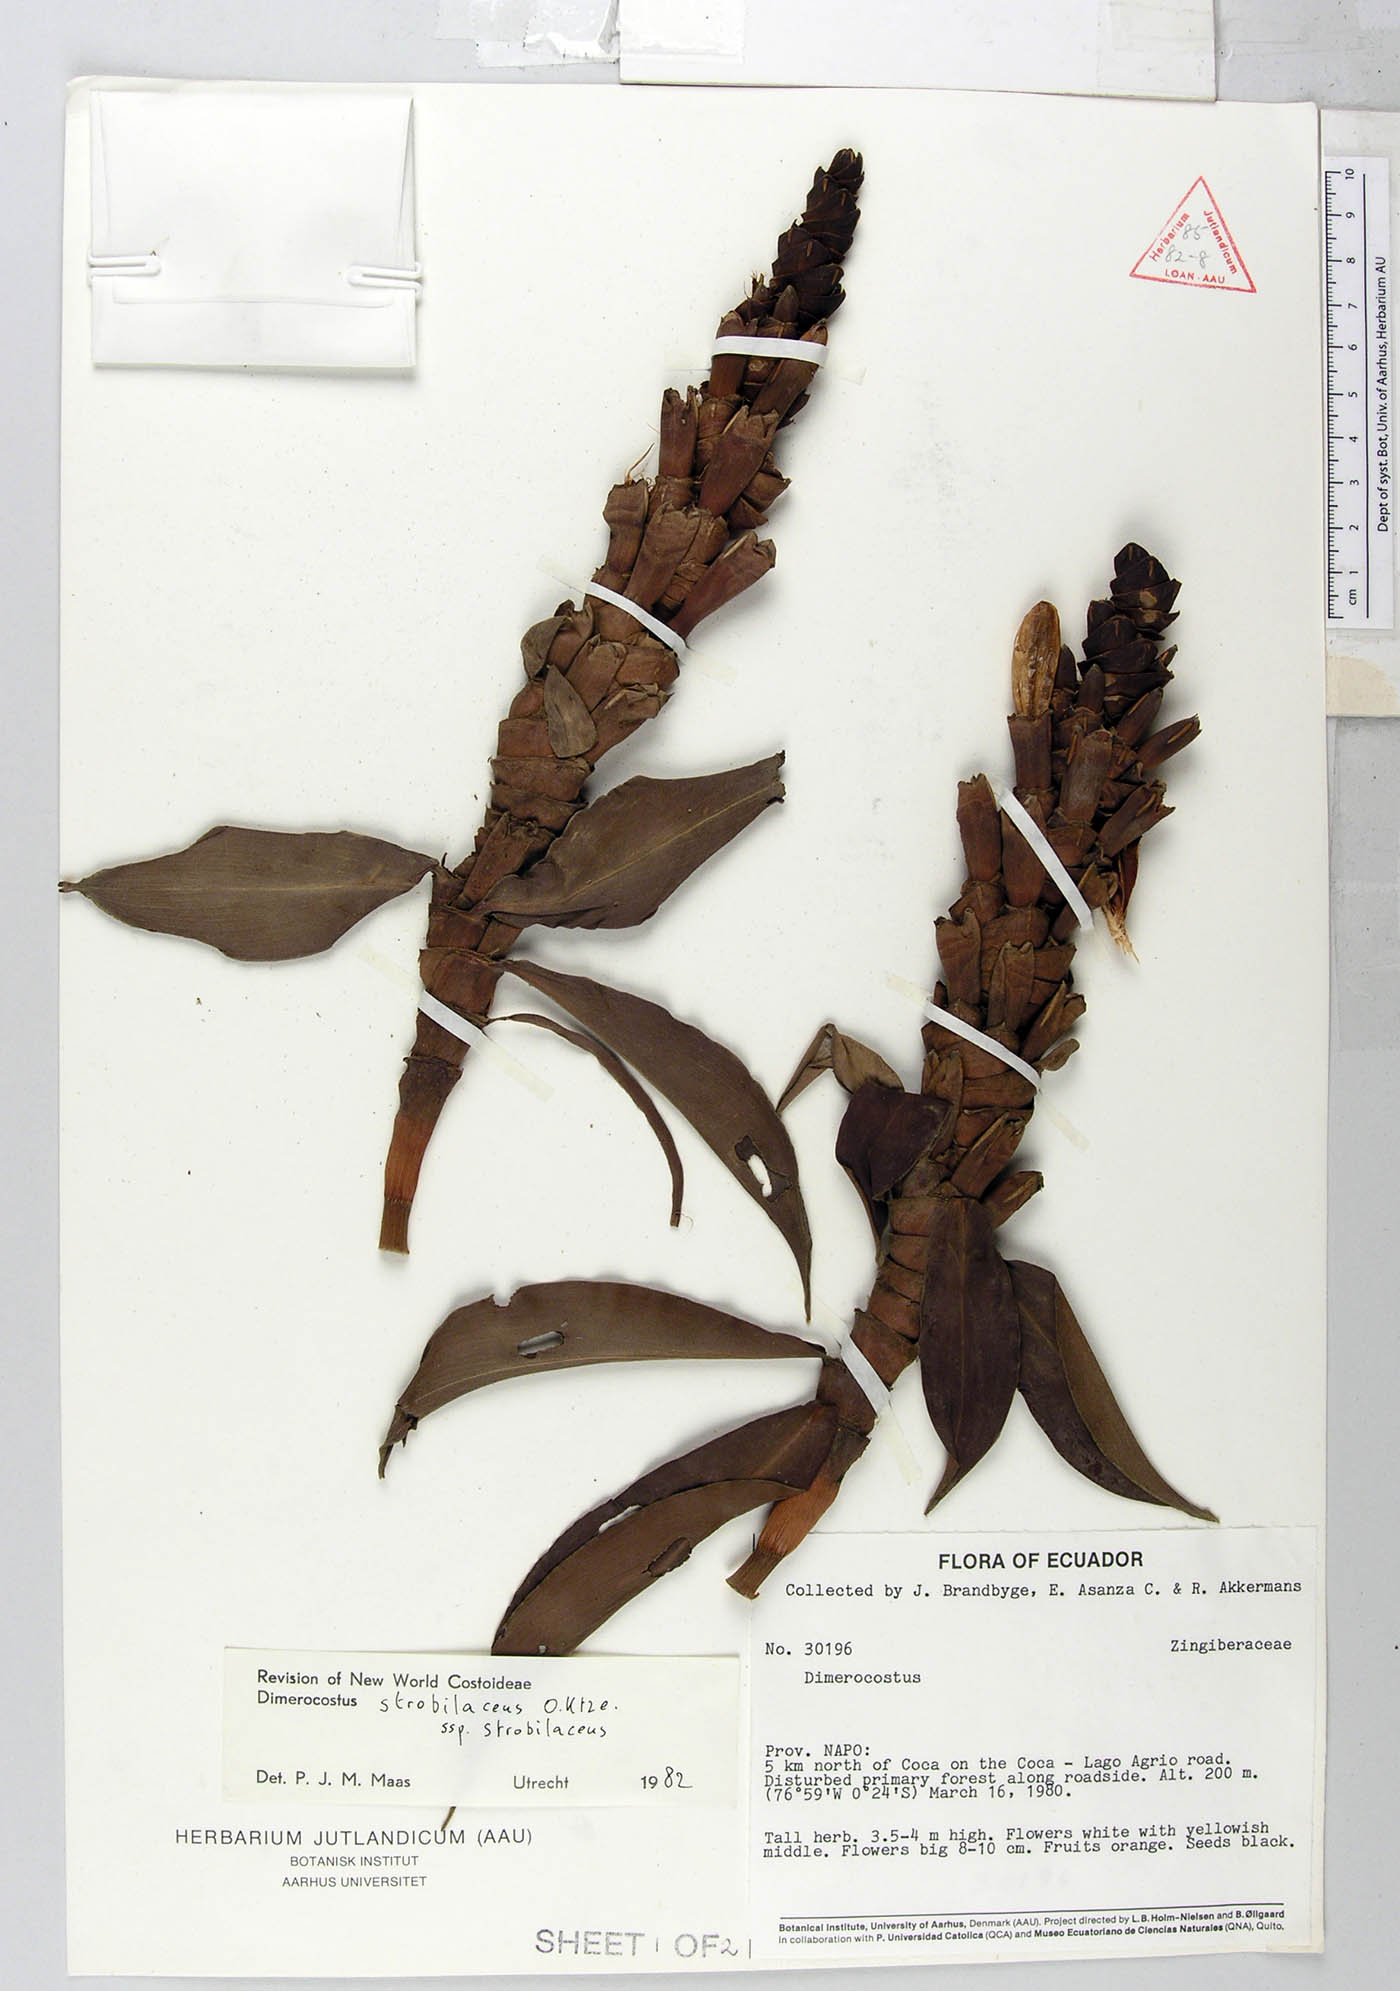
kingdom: Plantae
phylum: Tracheophyta
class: Liliopsida
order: Zingiberales
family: Costaceae
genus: Dimerocostus
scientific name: Dimerocostus strobilaceus
